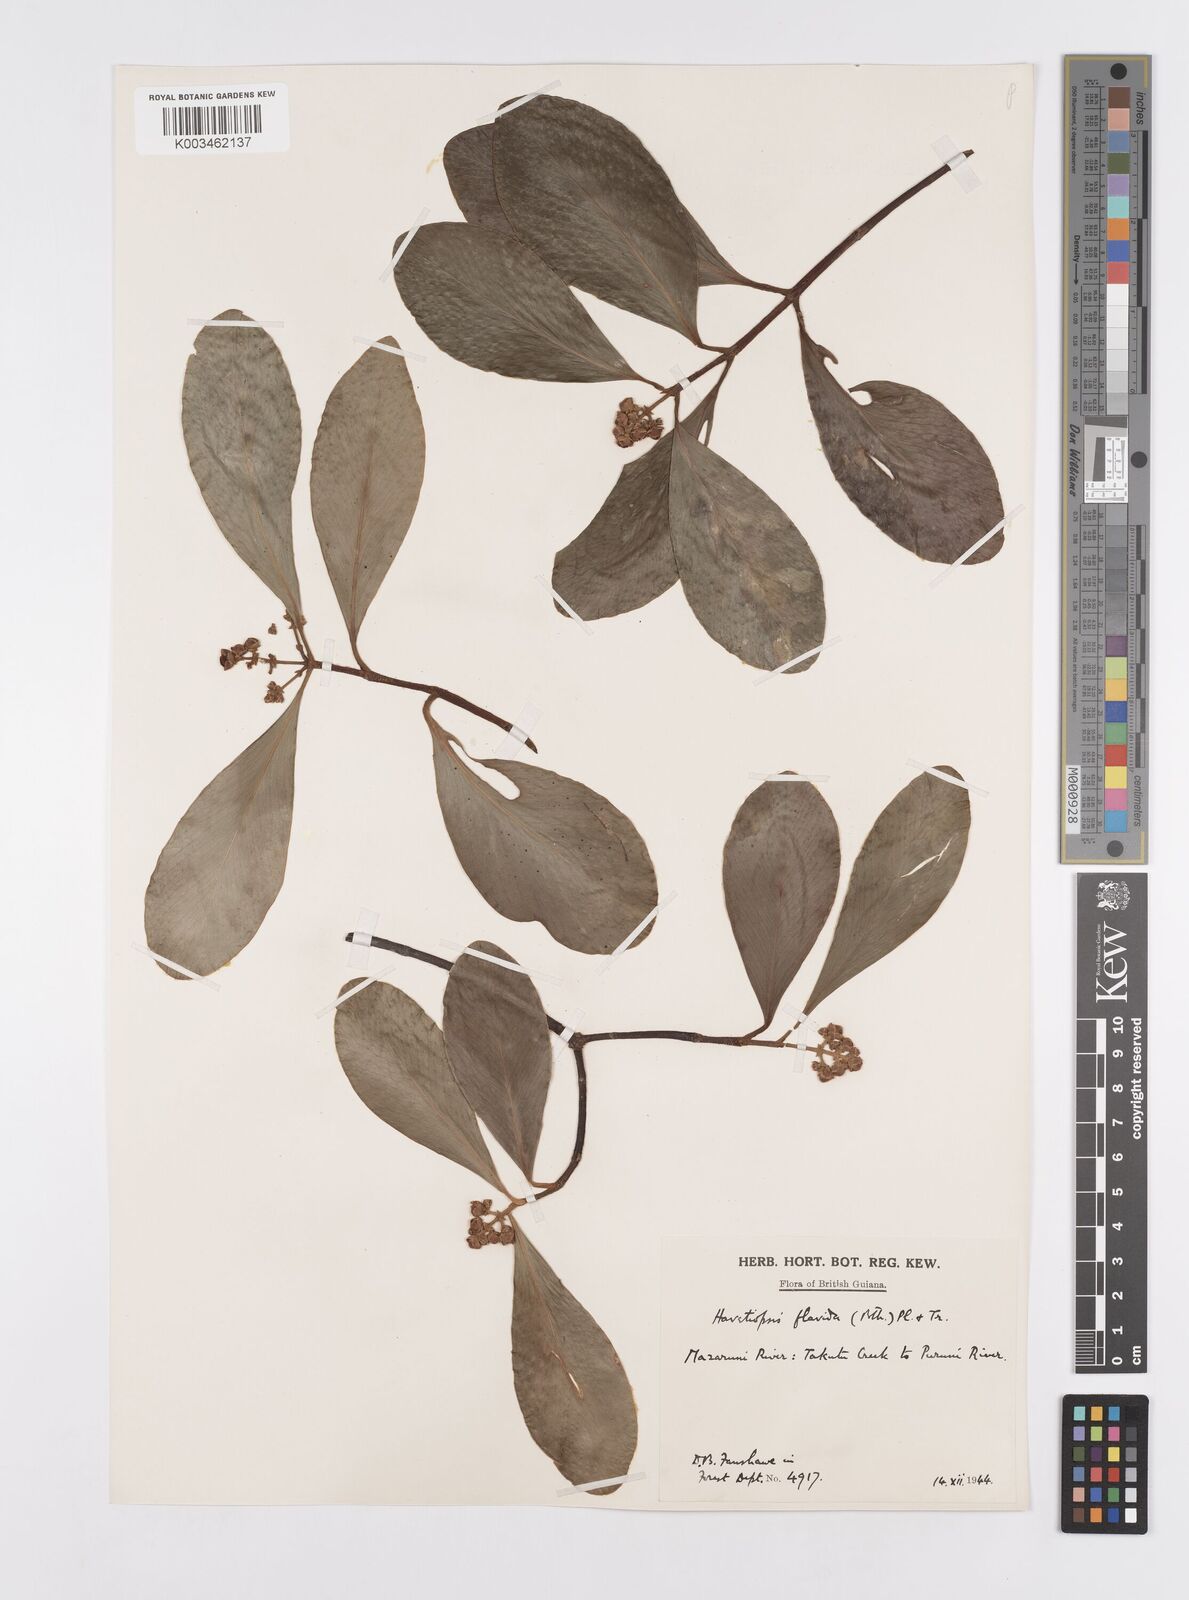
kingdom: Plantae
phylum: Tracheophyta
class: Magnoliopsida
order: Malpighiales
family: Clusiaceae
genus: Clusia
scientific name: Clusia flavida
